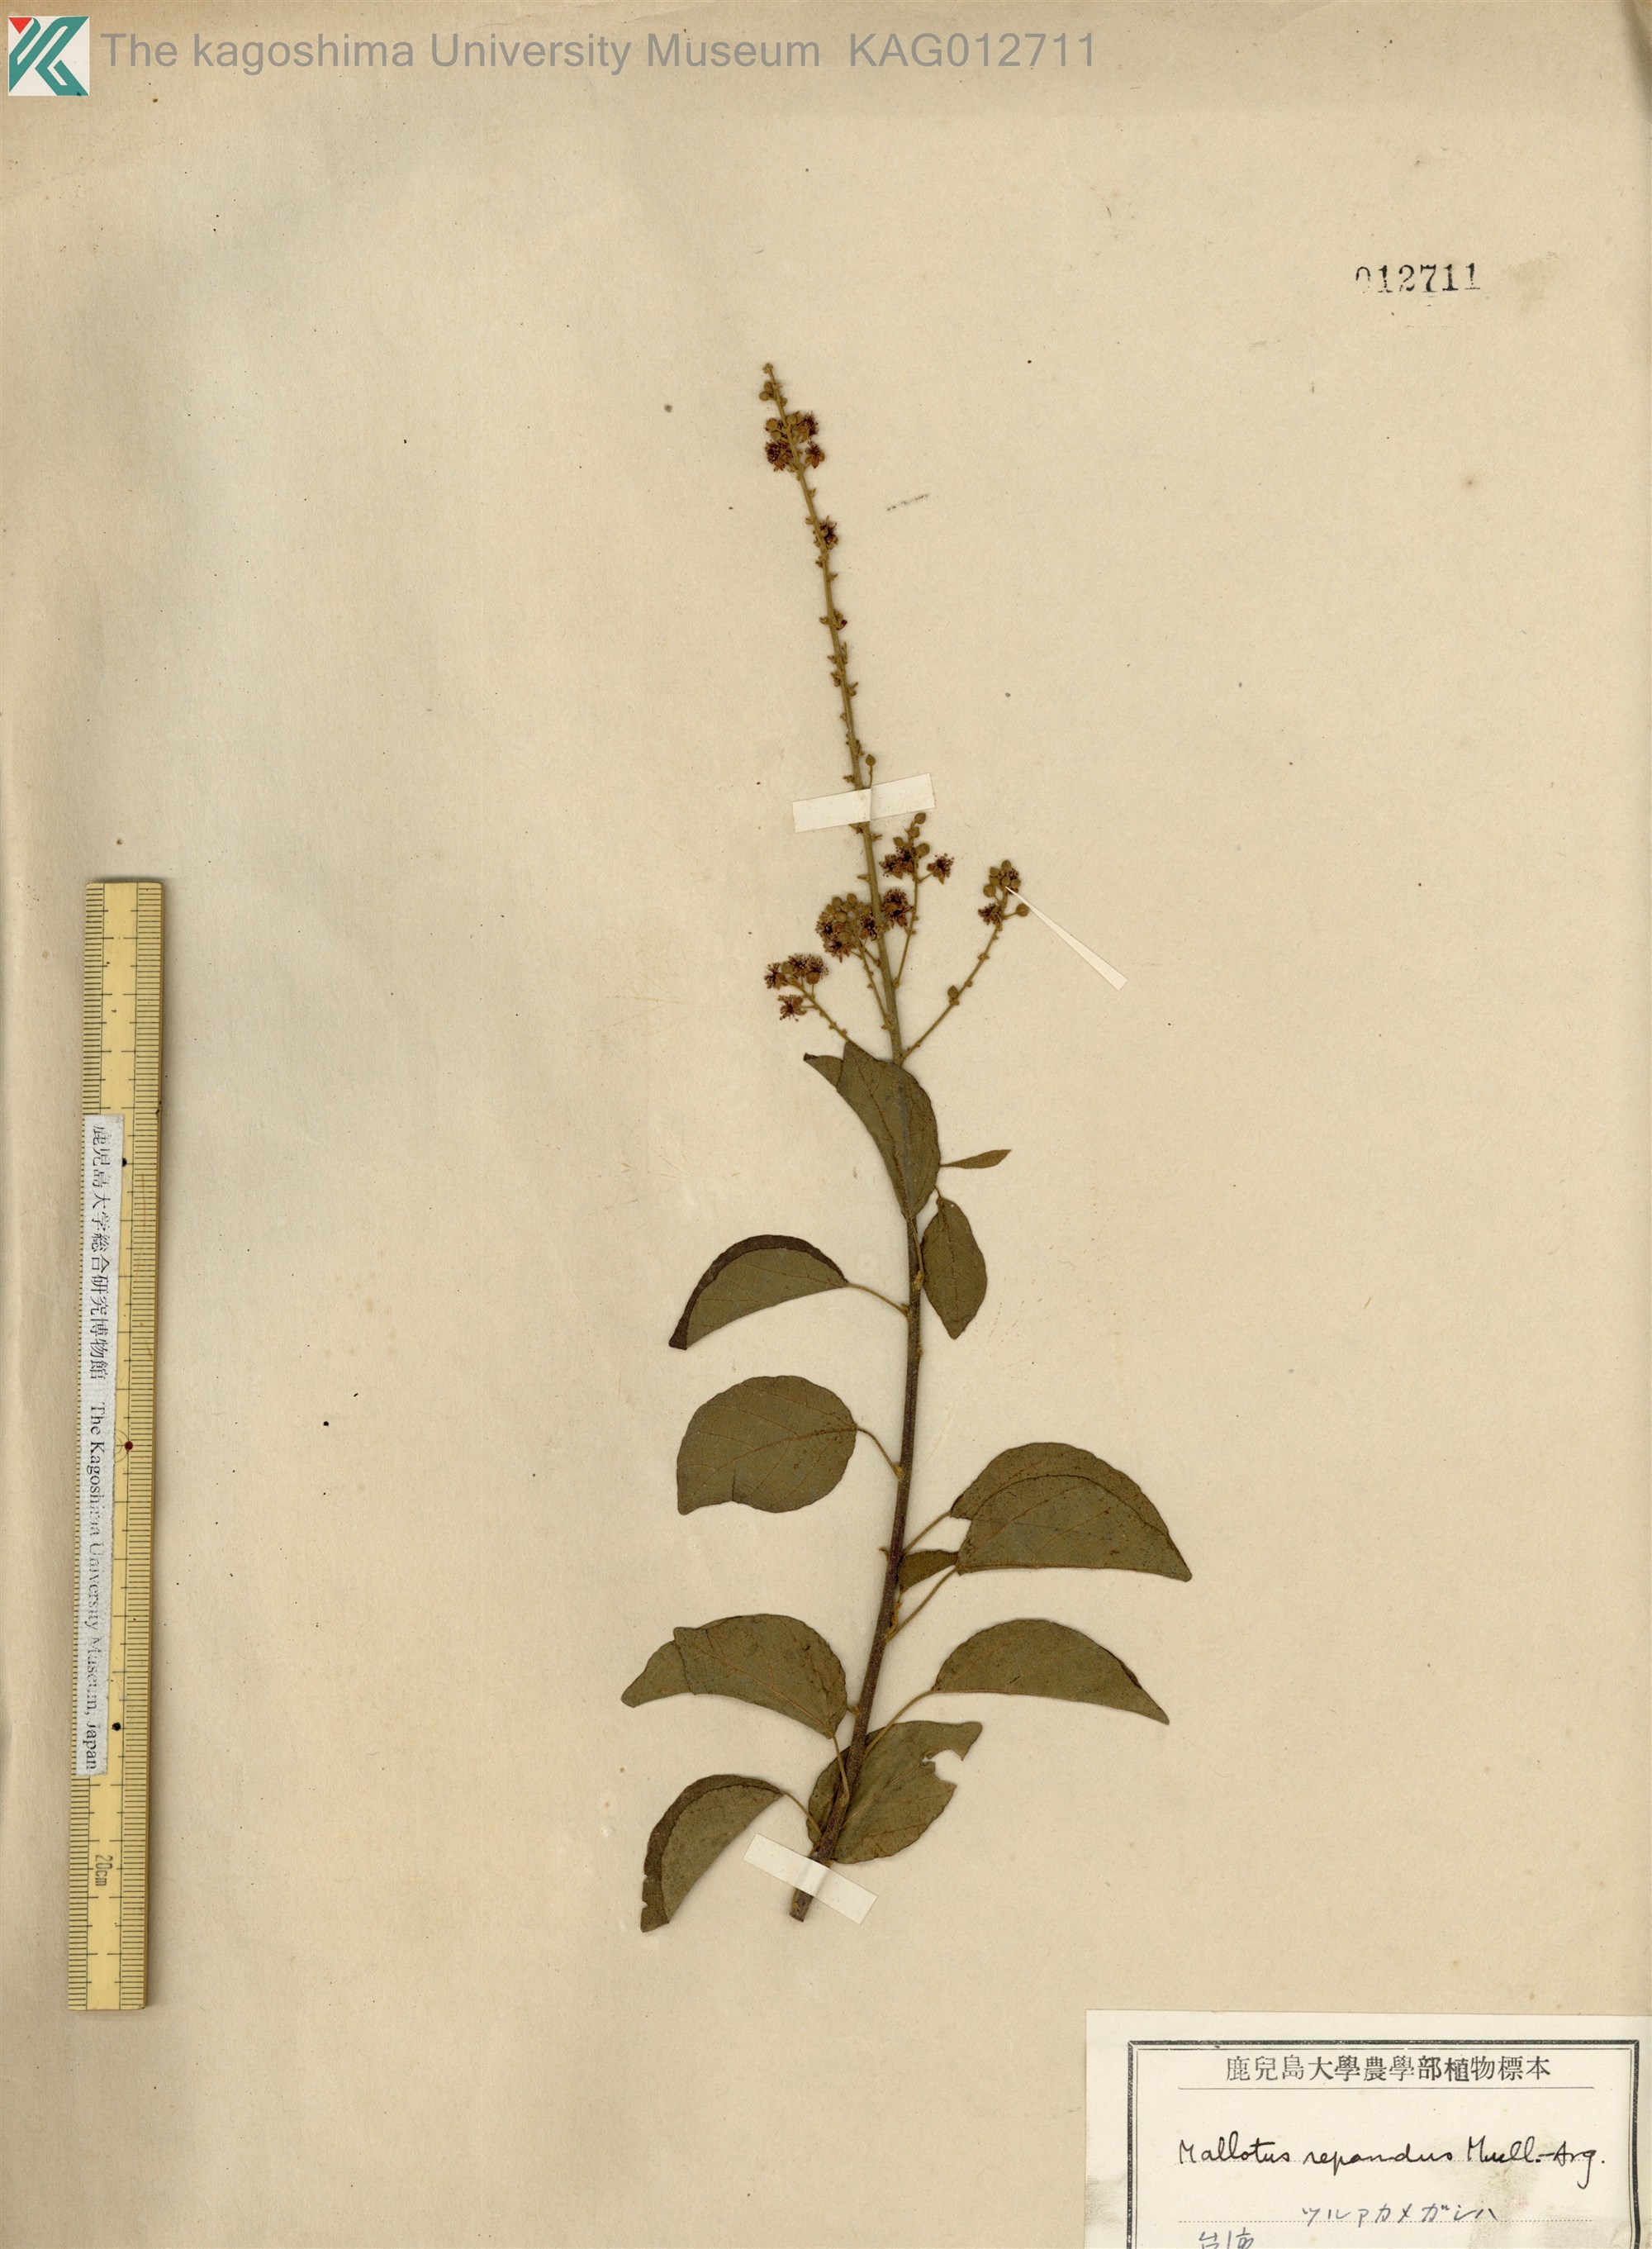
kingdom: Plantae
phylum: Tracheophyta
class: Magnoliopsida
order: Malpighiales
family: Euphorbiaceae
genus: Mallotus
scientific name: Mallotus repandus
